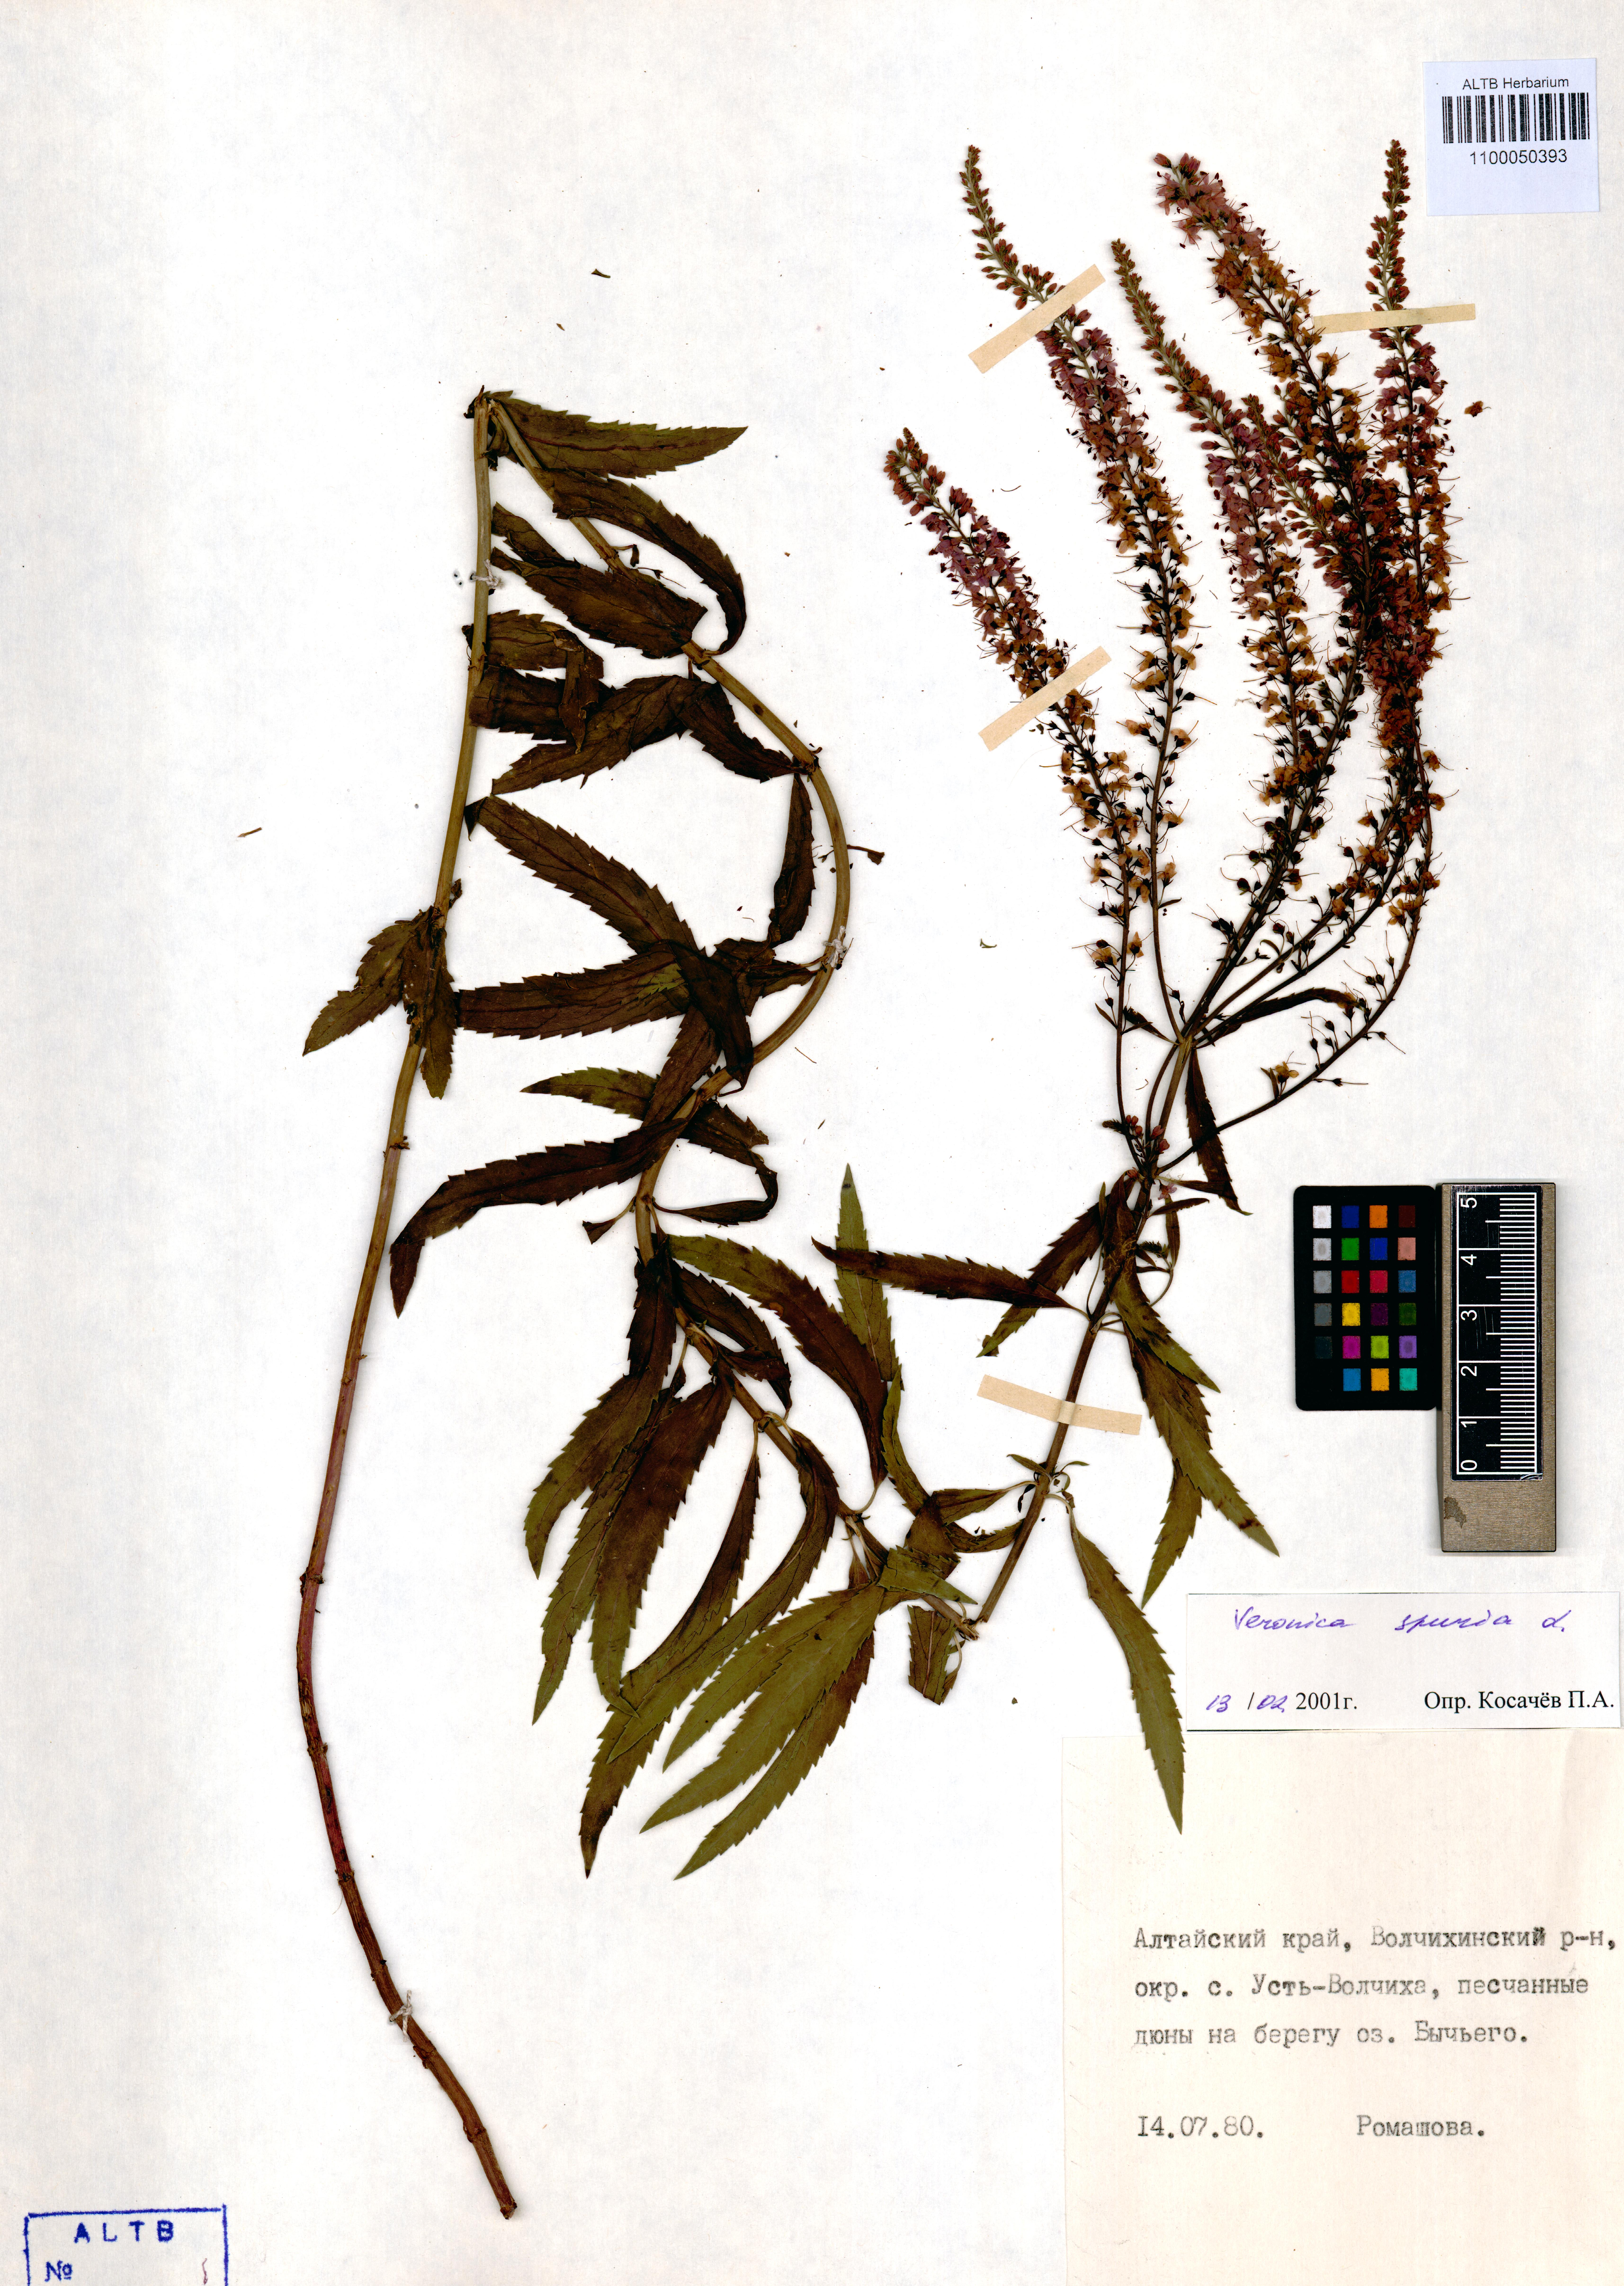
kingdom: Plantae
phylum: Tracheophyta
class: Magnoliopsida
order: Lamiales
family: Plantaginaceae
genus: Veronica
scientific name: Veronica spuria
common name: Bastard speedwell
